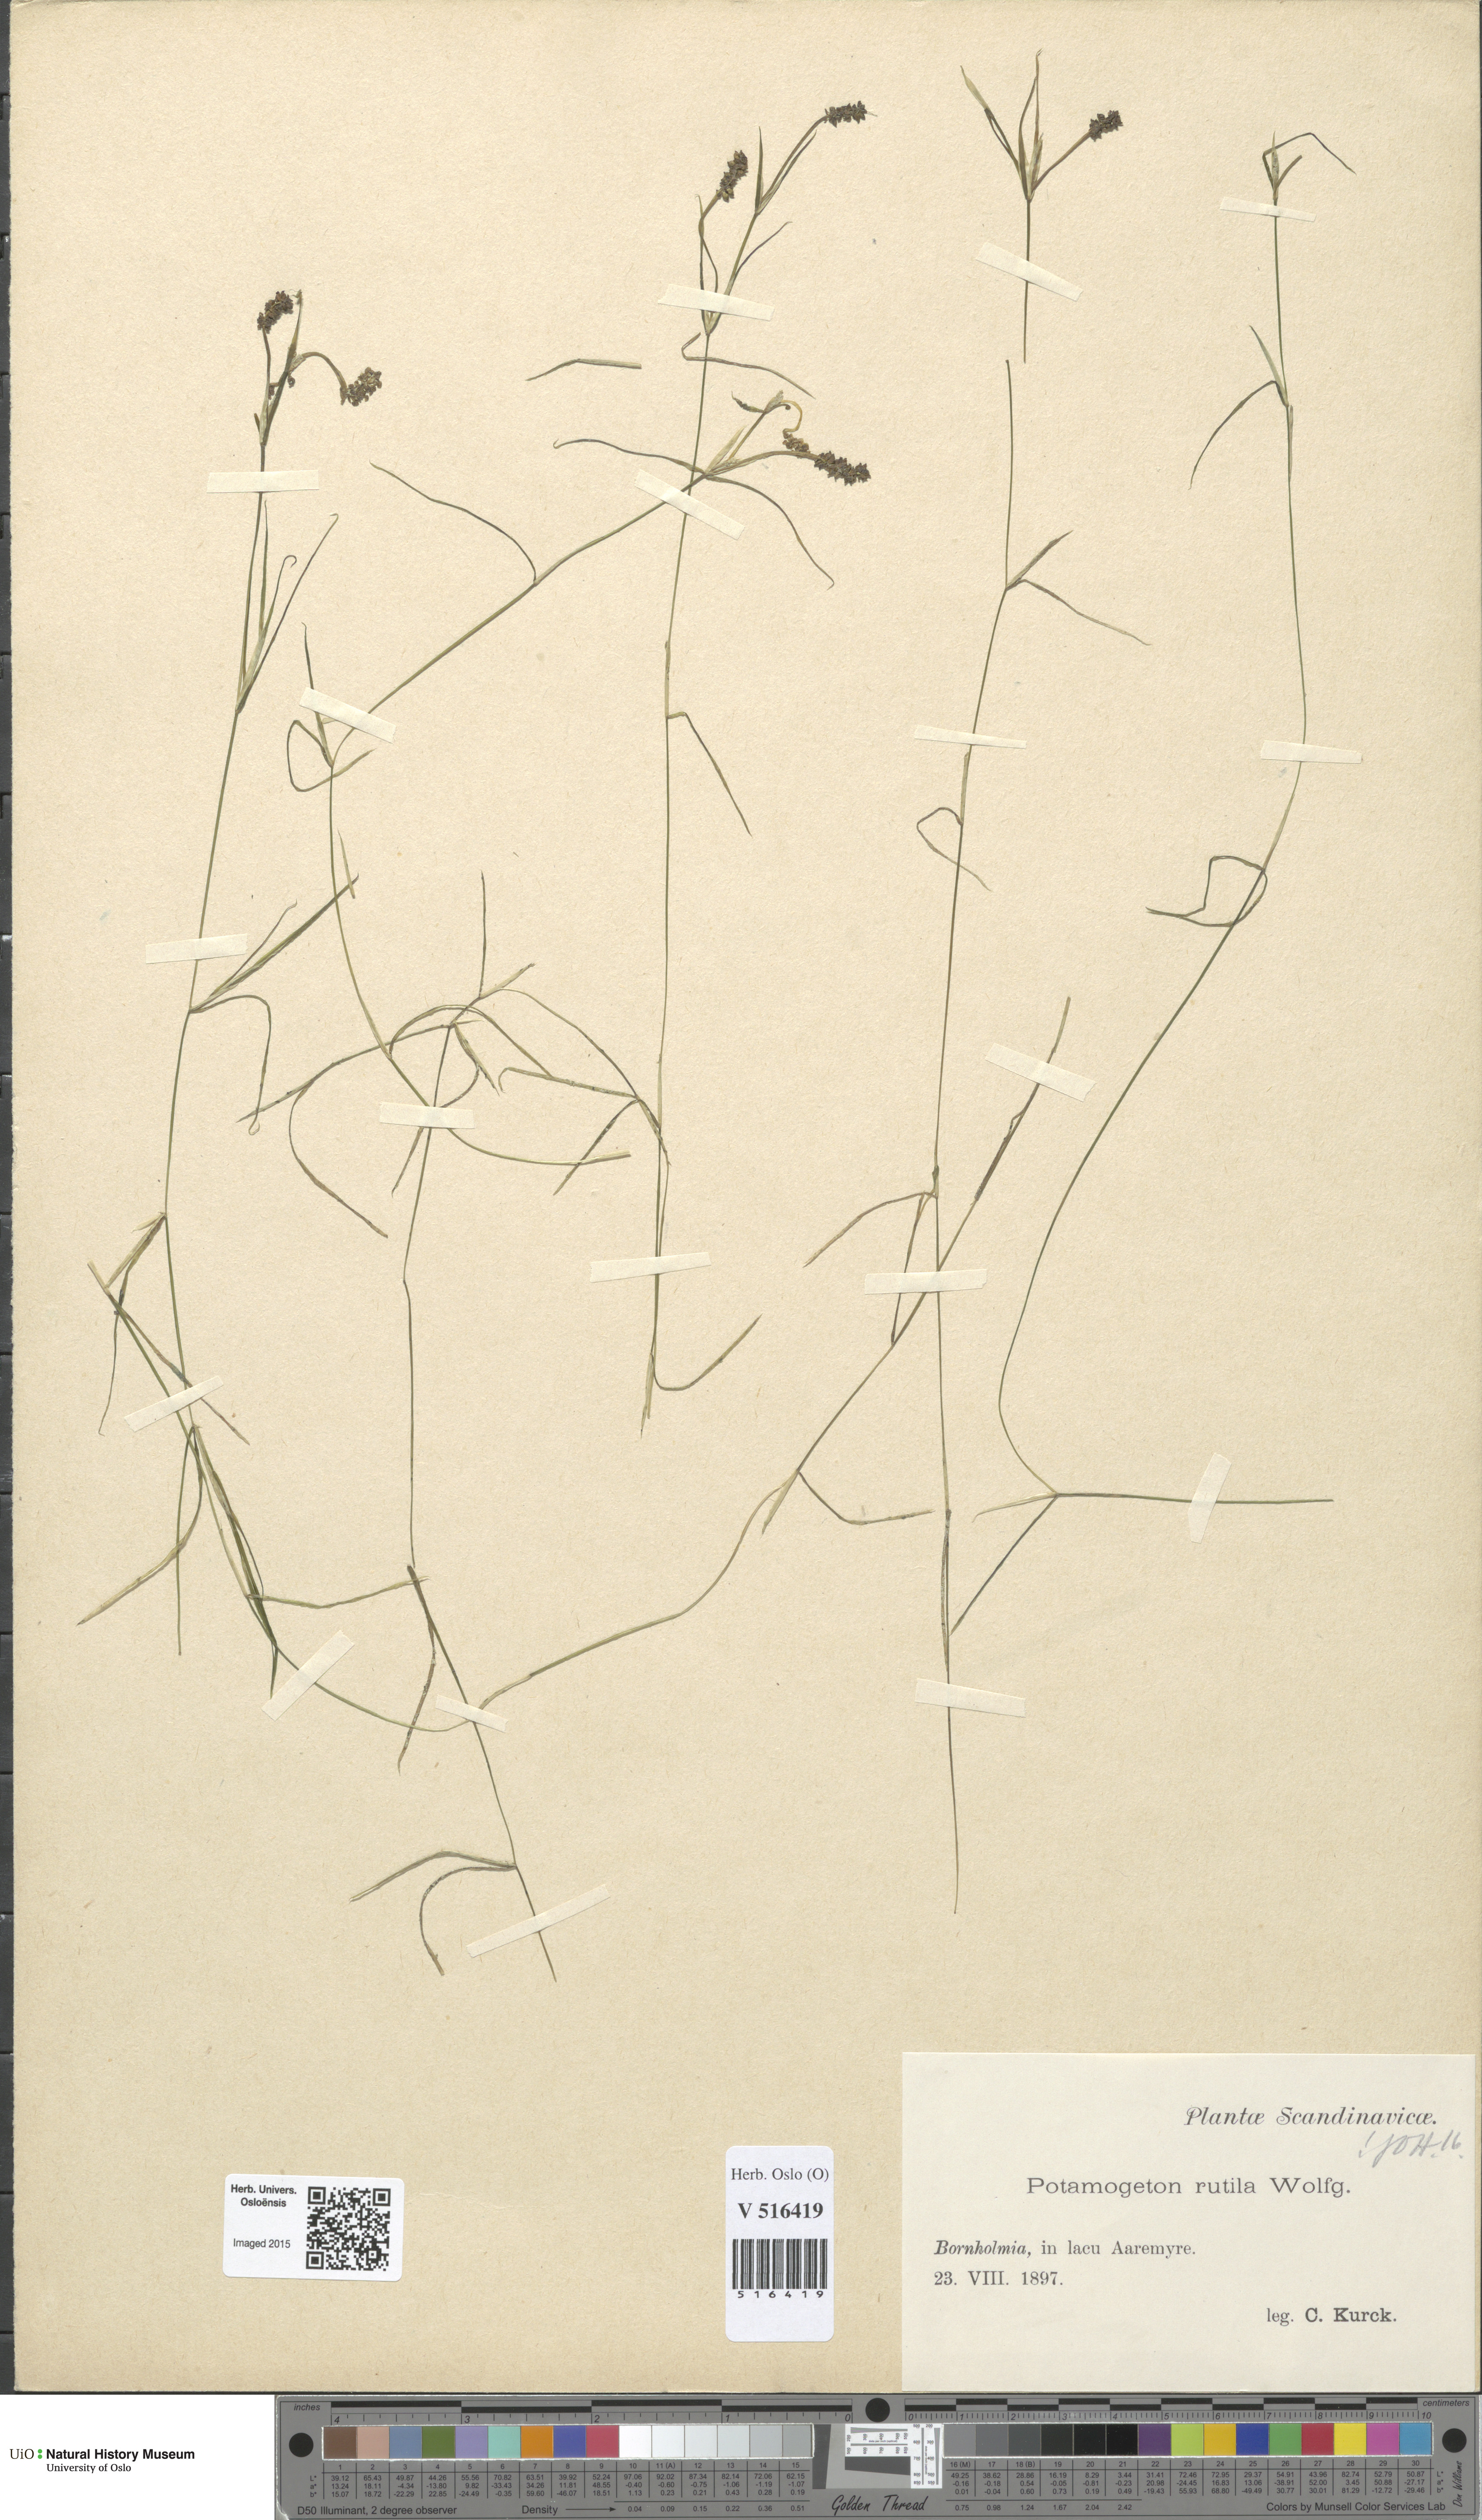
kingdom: Plantae
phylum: Tracheophyta
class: Liliopsida
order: Alismatales
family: Potamogetonaceae
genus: Potamogeton
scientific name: Potamogeton rutilus
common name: Shetland pondweed
